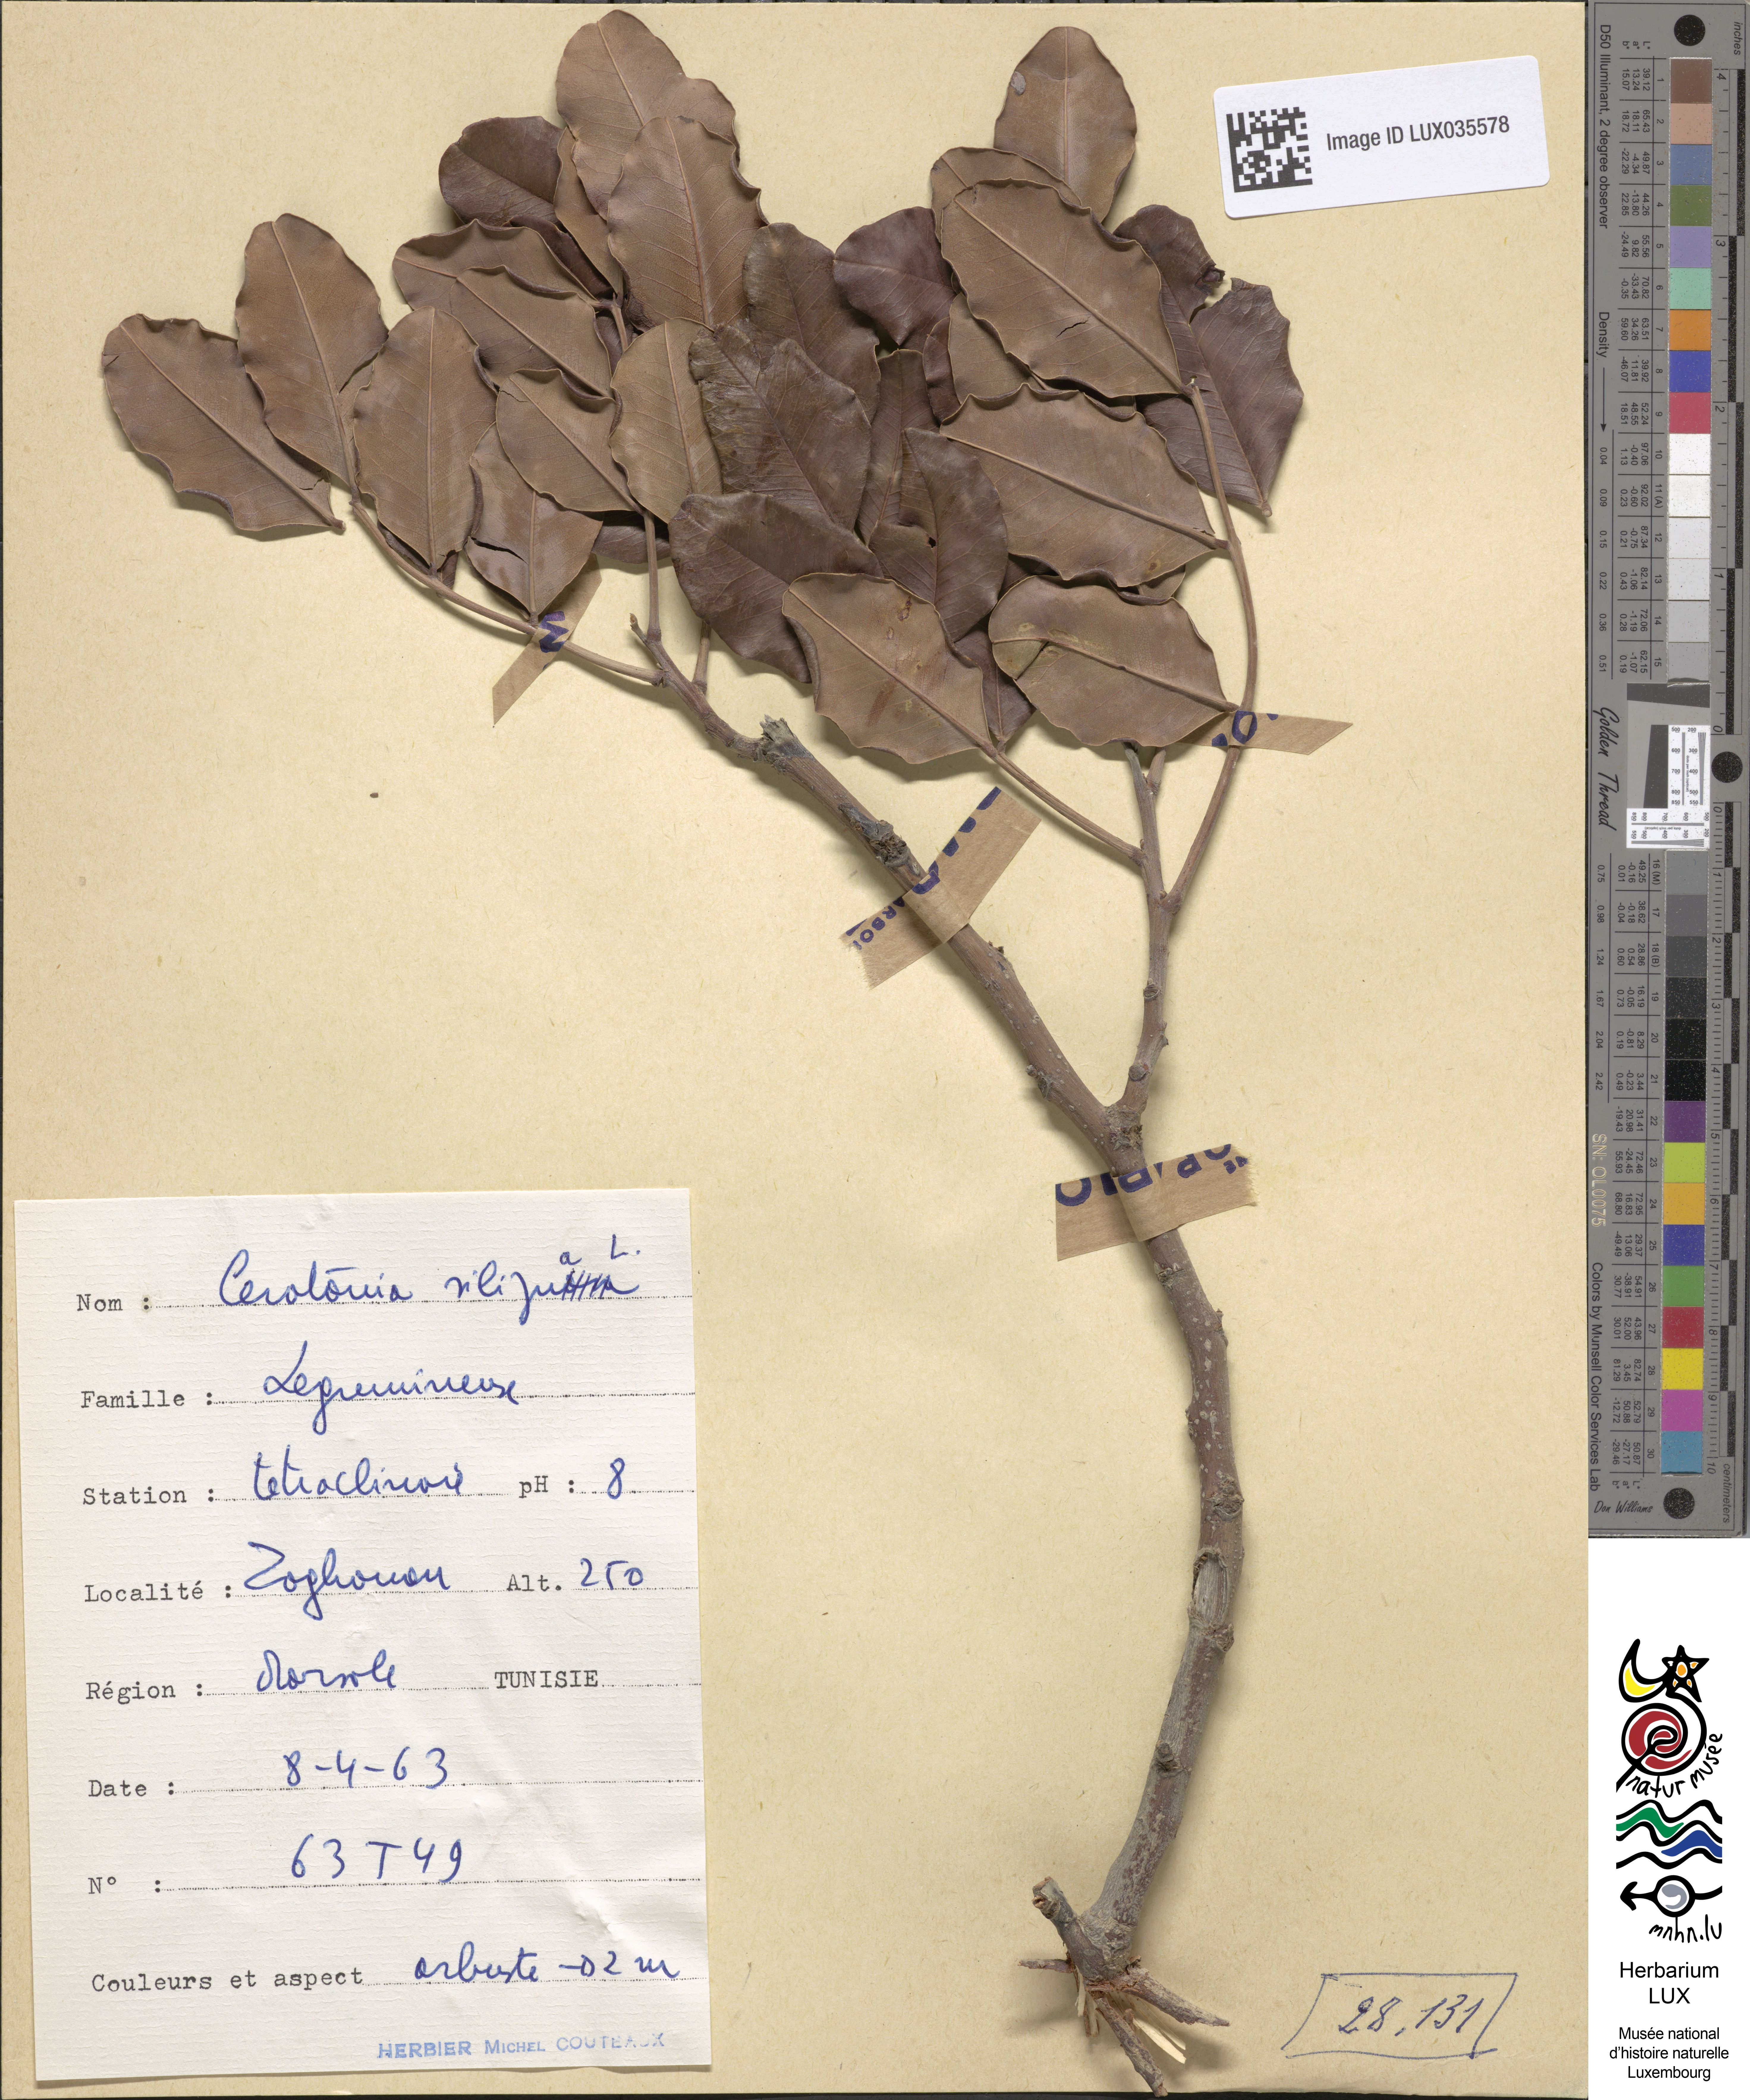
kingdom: Plantae
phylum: Tracheophyta
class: Magnoliopsida
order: Fabales
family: Fabaceae
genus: Ceratonia
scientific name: Ceratonia siliqua
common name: Carob
